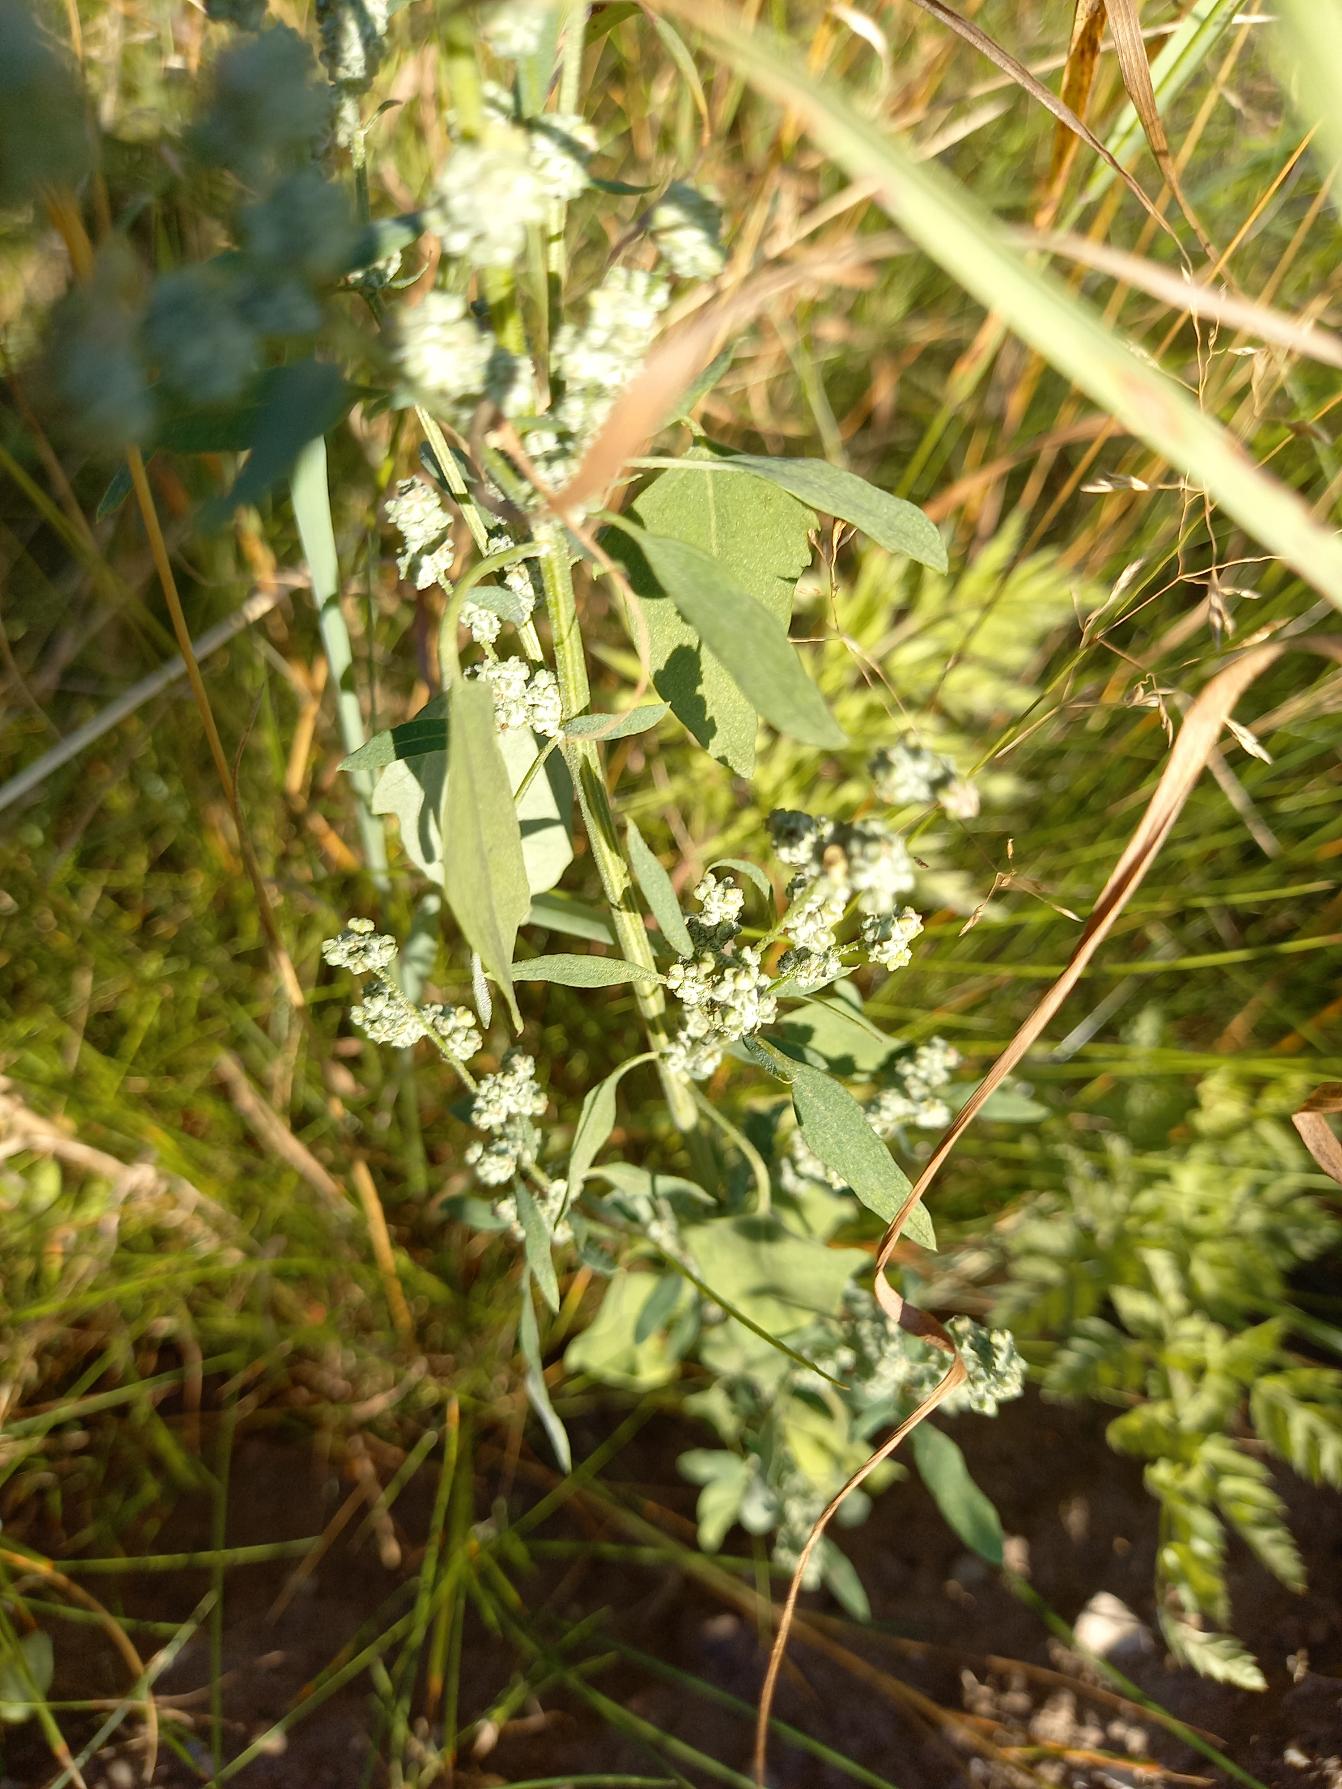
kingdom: Plantae
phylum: Tracheophyta
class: Magnoliopsida
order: Caryophyllales
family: Amaranthaceae
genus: Chenopodium
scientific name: Chenopodium album
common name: Hvidmelet gåsefod
